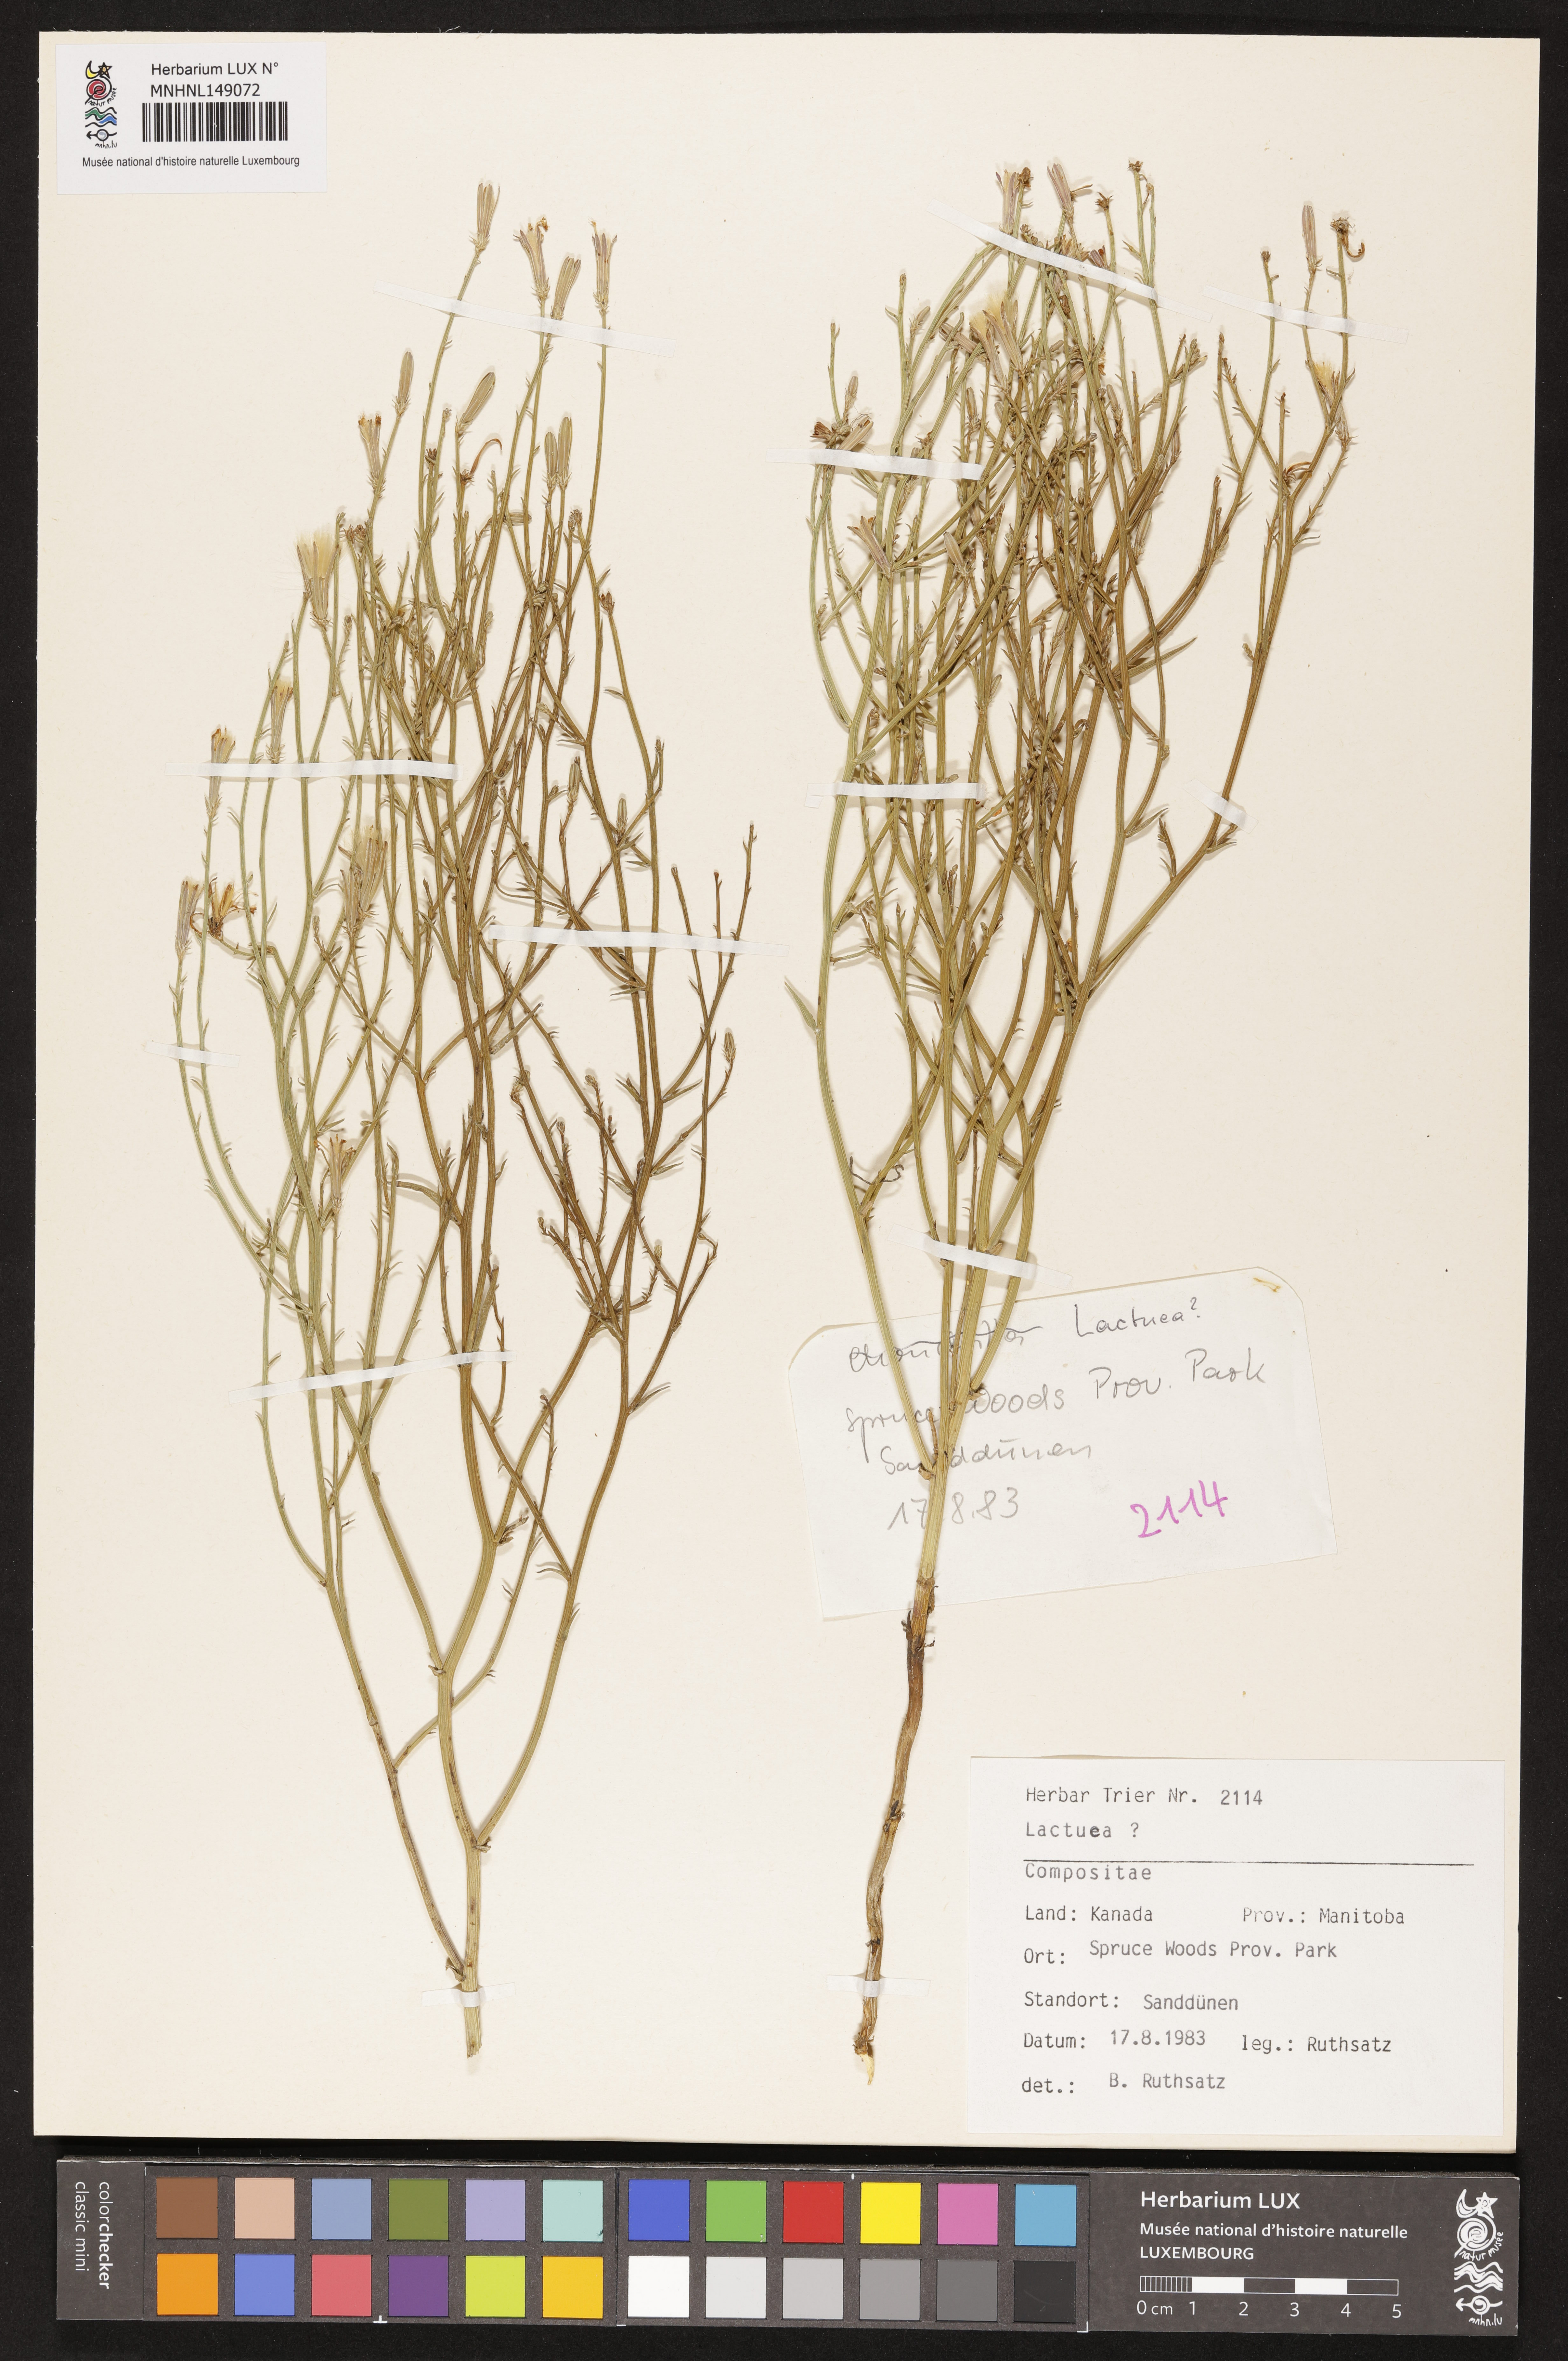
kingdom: Plantae
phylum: Tracheophyta
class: Magnoliopsida
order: Asterales
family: Asteraceae
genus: Lactuca
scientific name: Lactuca
